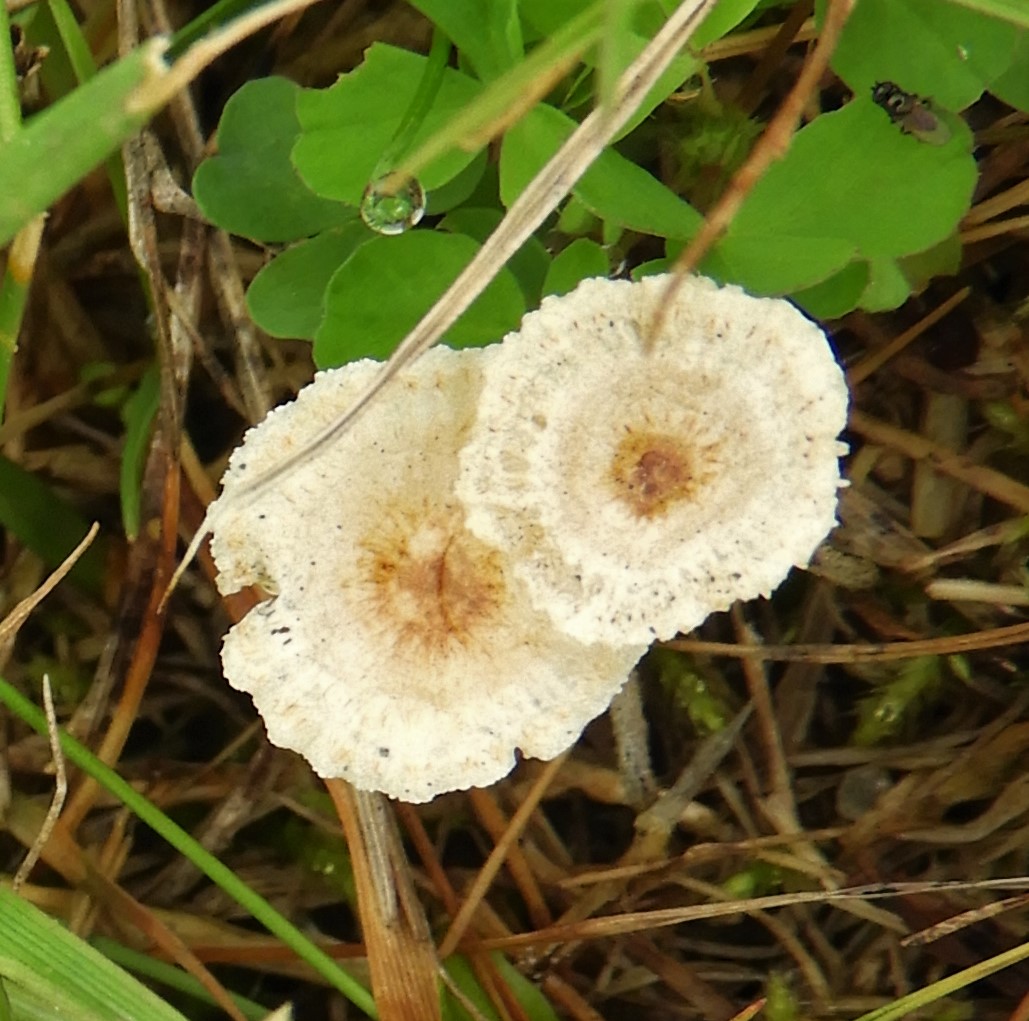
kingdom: Fungi
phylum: Basidiomycota
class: Agaricomycetes
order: Agaricales
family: Marasmiaceae
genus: Crinipellis
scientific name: Crinipellis scabella
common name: børstefod
